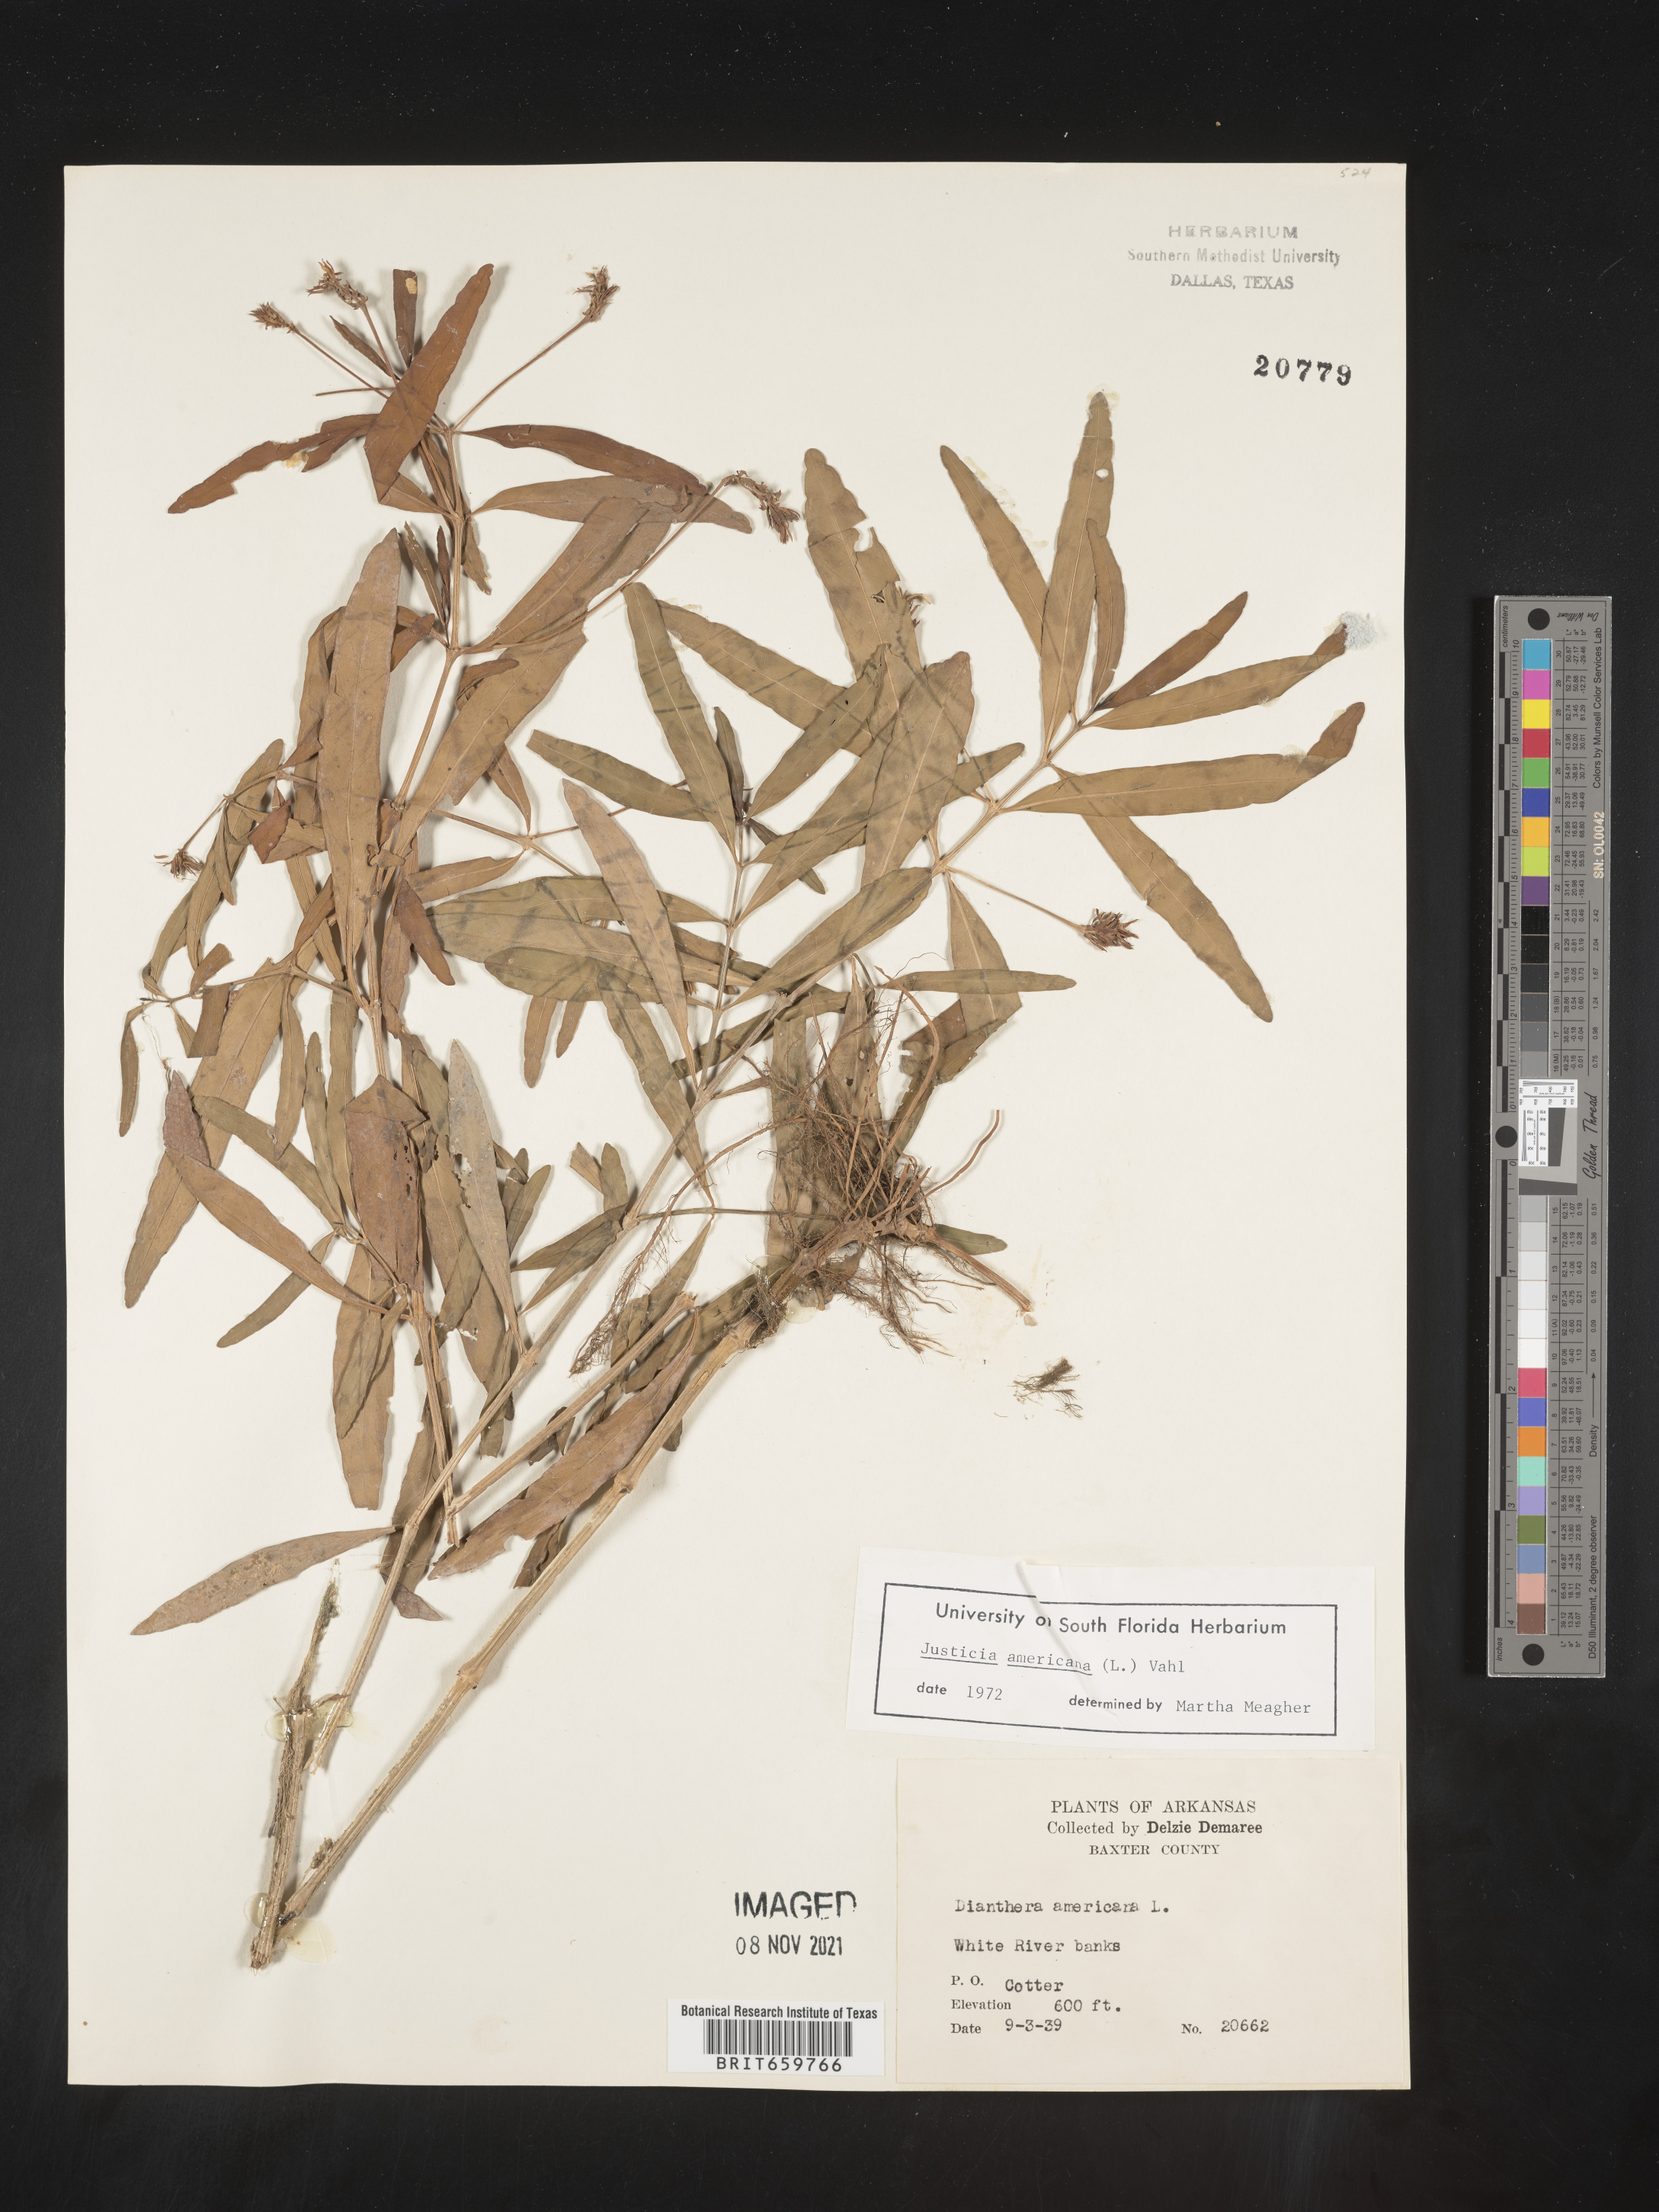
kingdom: Plantae
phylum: Tracheophyta
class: Magnoliopsida
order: Lamiales
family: Acanthaceae
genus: Dianthera
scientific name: Dianthera americana
